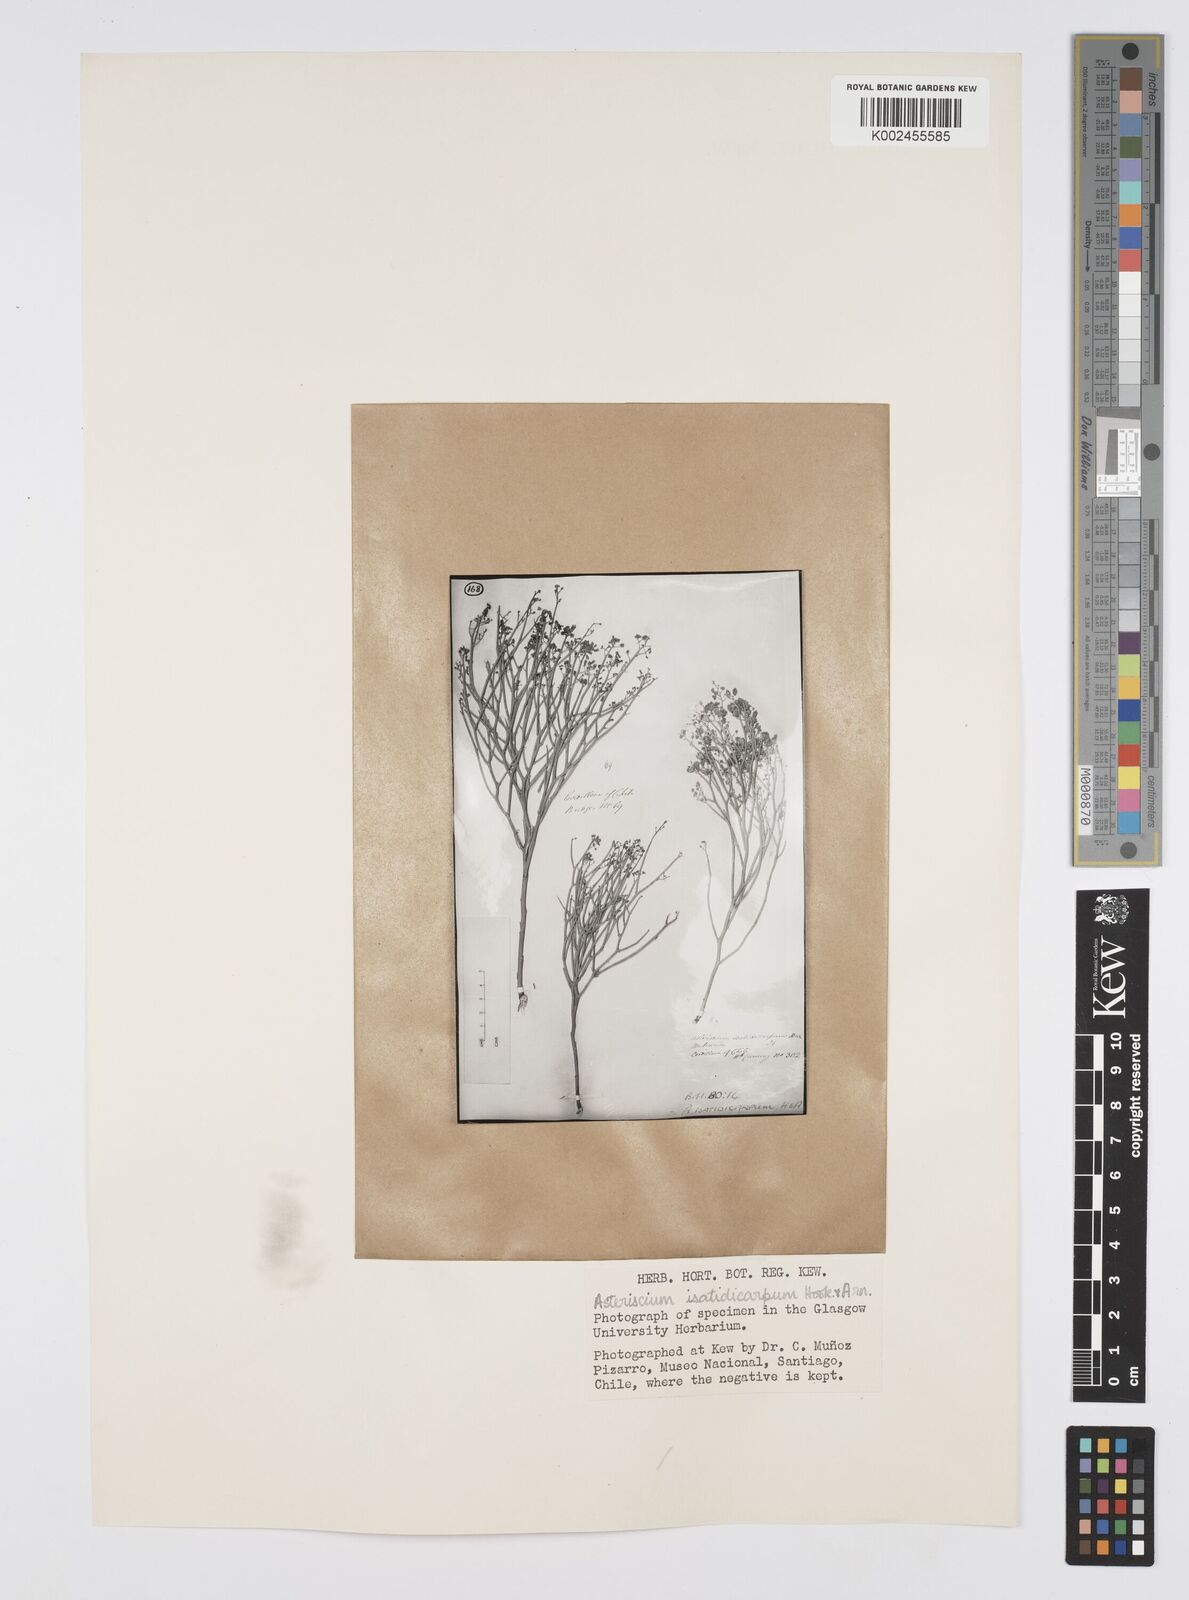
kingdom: Plantae
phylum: Tracheophyta
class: Magnoliopsida
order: Apiales
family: Apiaceae
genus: Gymnophyton
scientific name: Gymnophyton isatidicarpum
